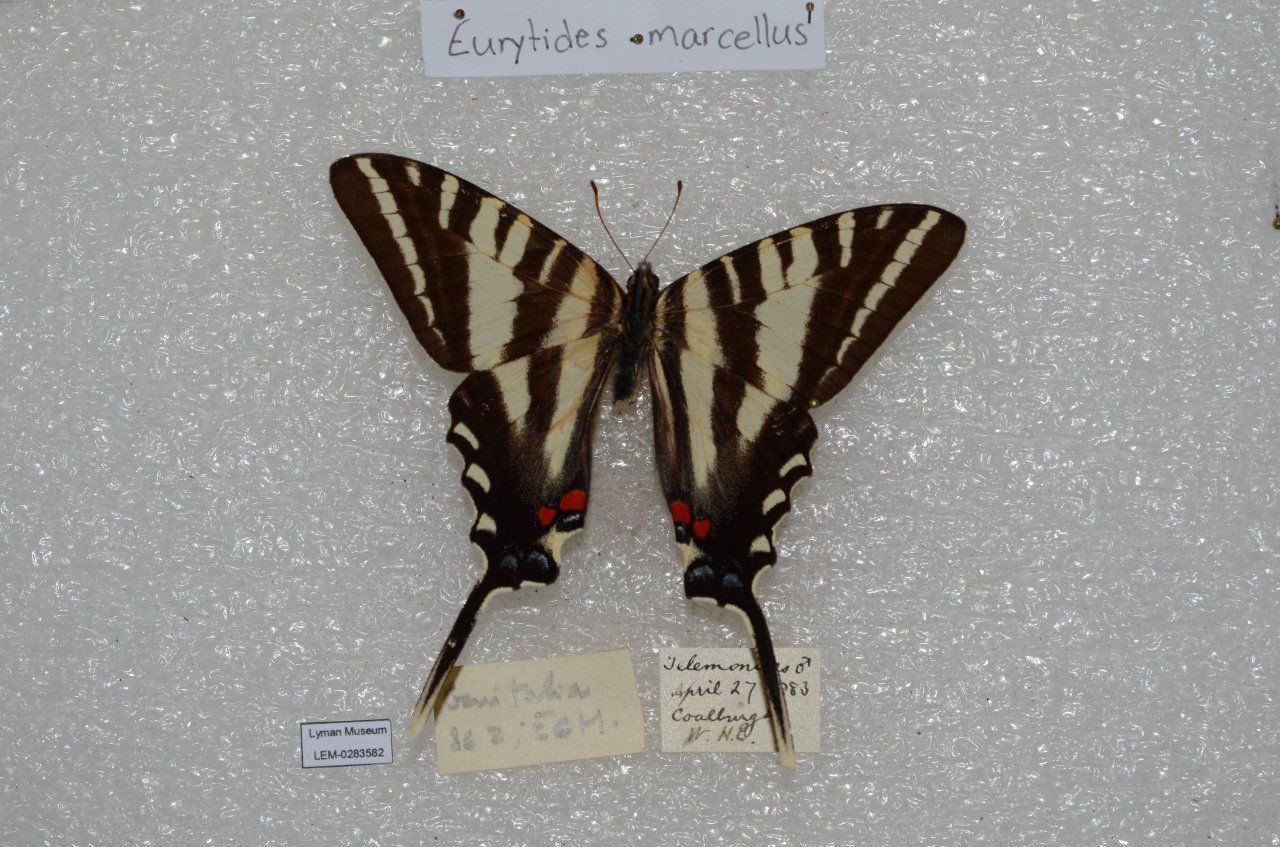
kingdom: Animalia
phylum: Arthropoda
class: Insecta
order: Lepidoptera
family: Papilionidae
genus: Protographium
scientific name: Protographium marcellus
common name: Zebra Swallowtail
